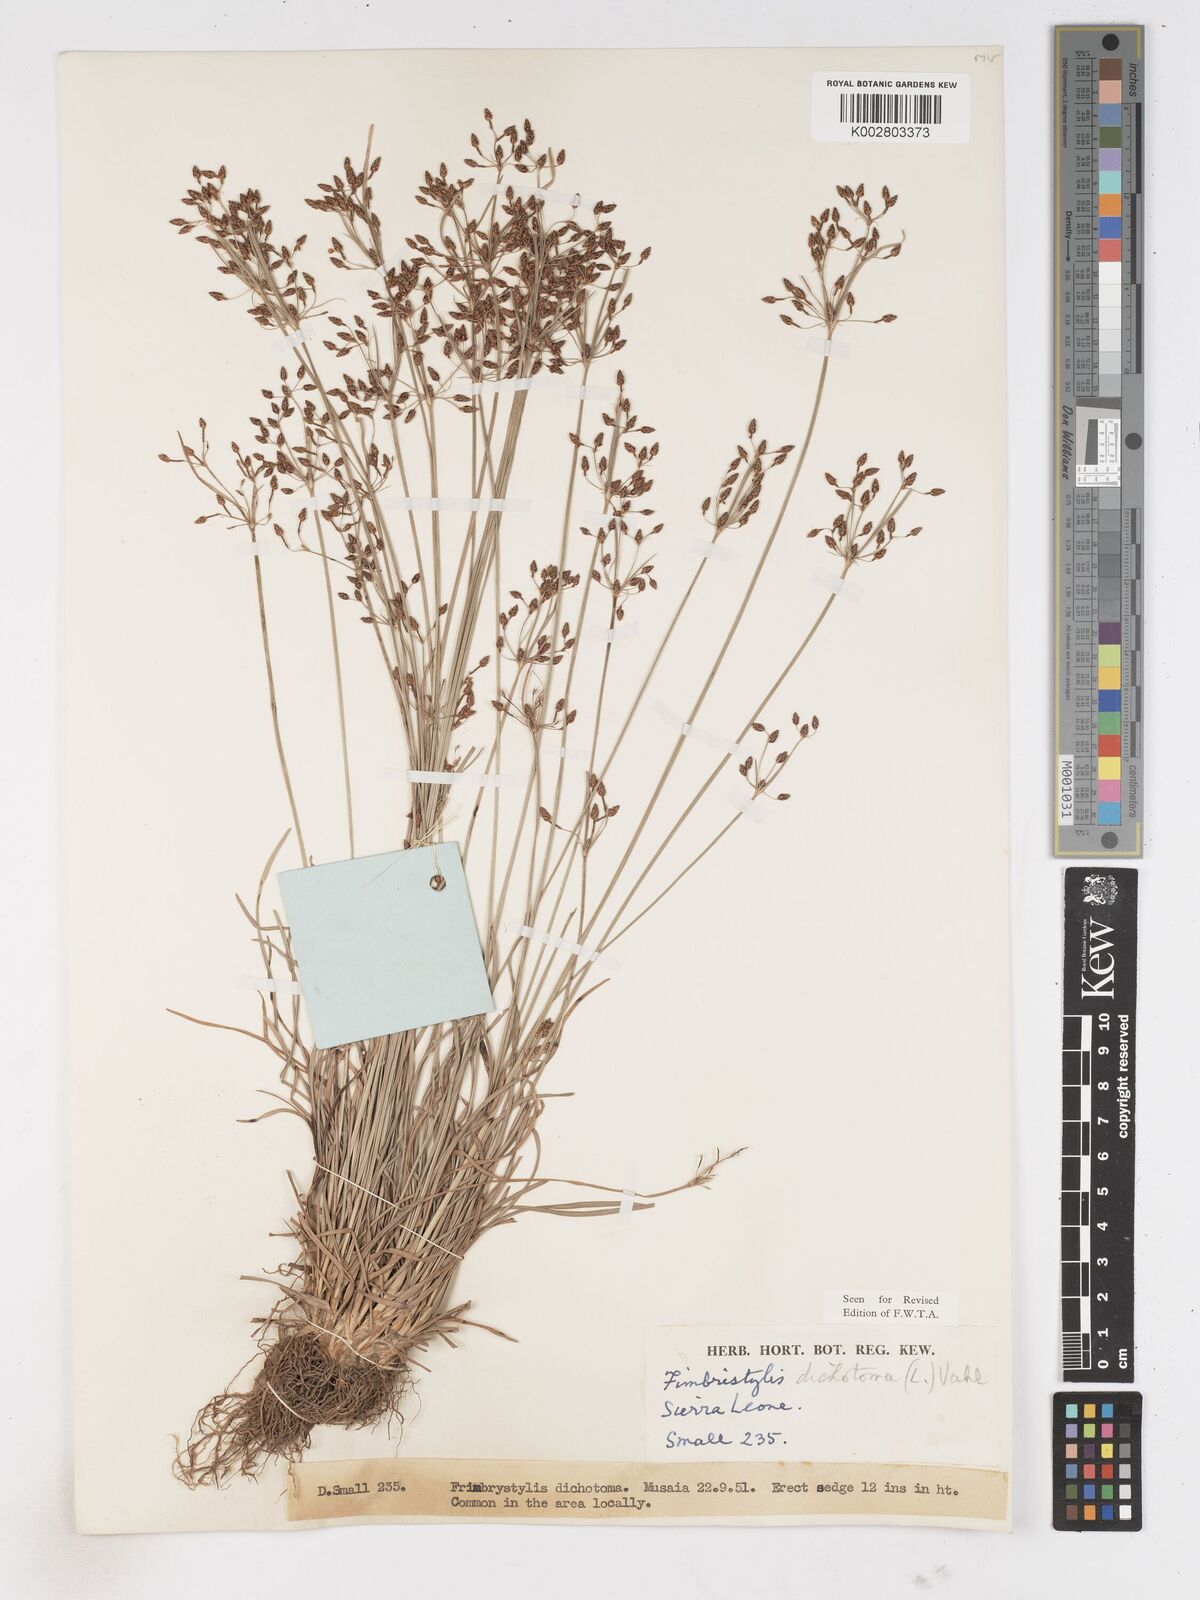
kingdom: Plantae
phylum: Tracheophyta
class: Liliopsida
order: Poales
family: Cyperaceae
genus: Fimbristylis
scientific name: Fimbristylis dichotoma
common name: Forked fimbry
